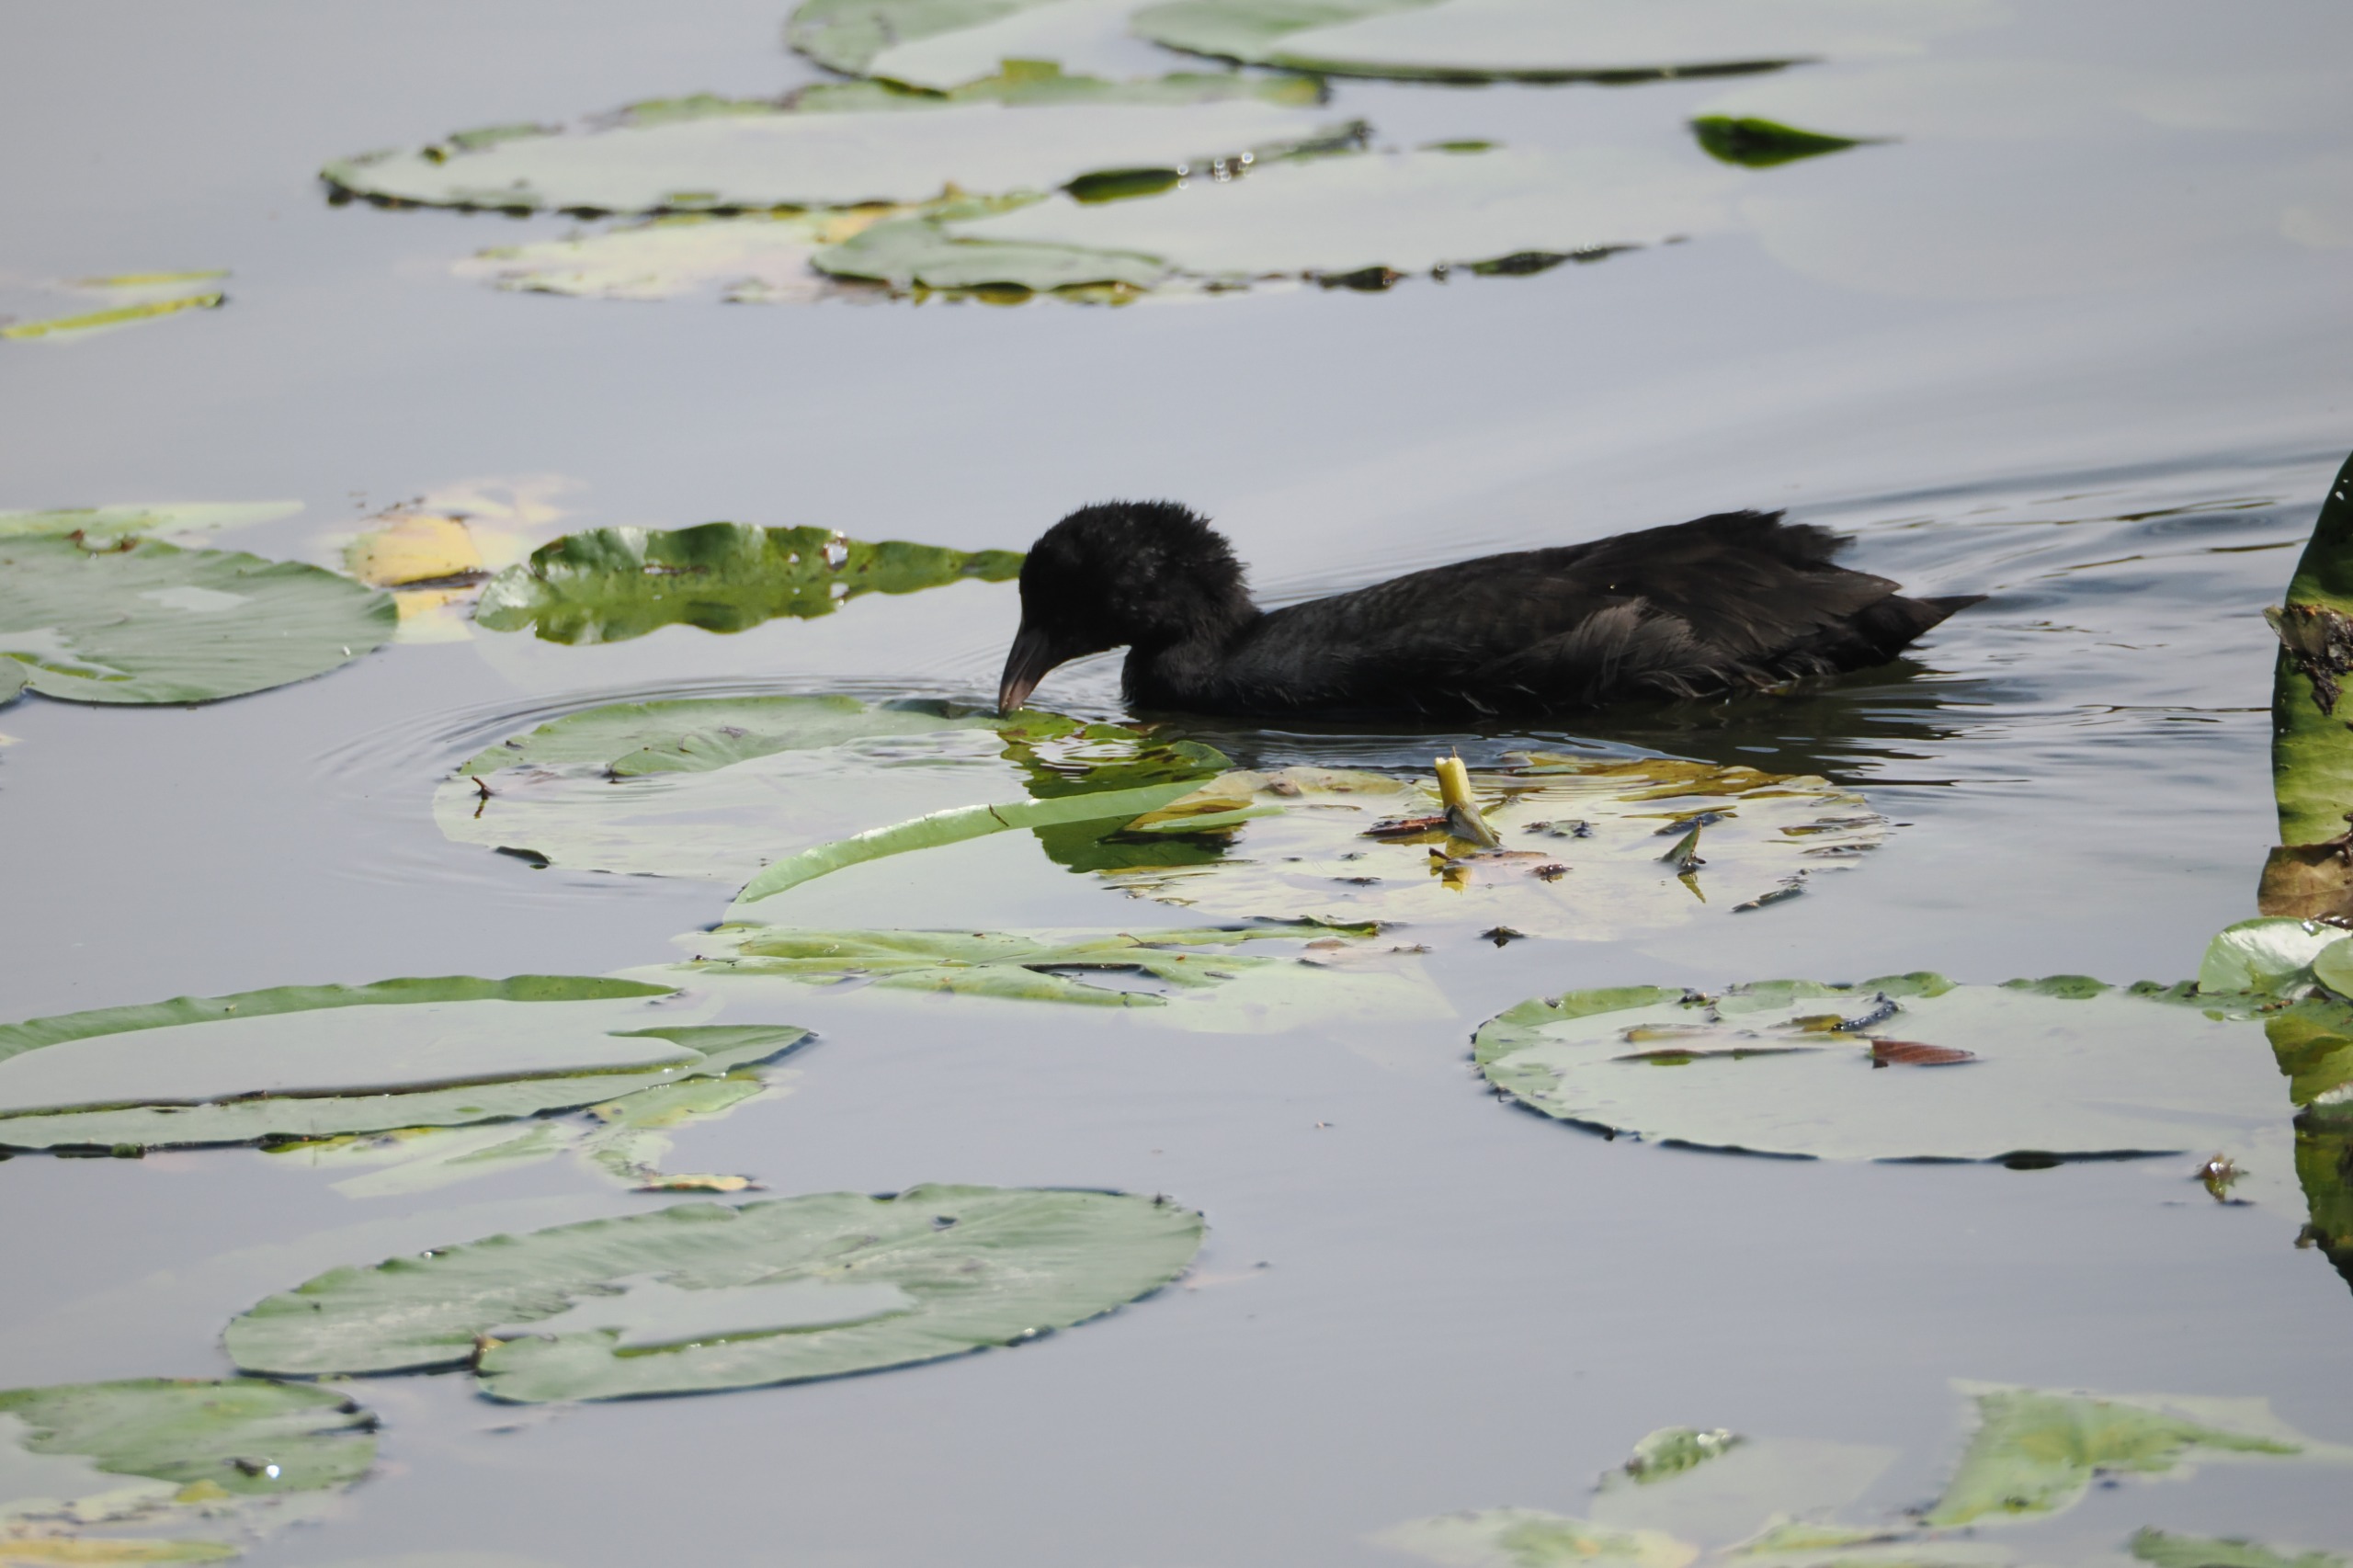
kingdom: Animalia
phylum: Chordata
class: Aves
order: Gruiformes
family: Rallidae
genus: Fulica
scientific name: Fulica atra
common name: Blishøne
